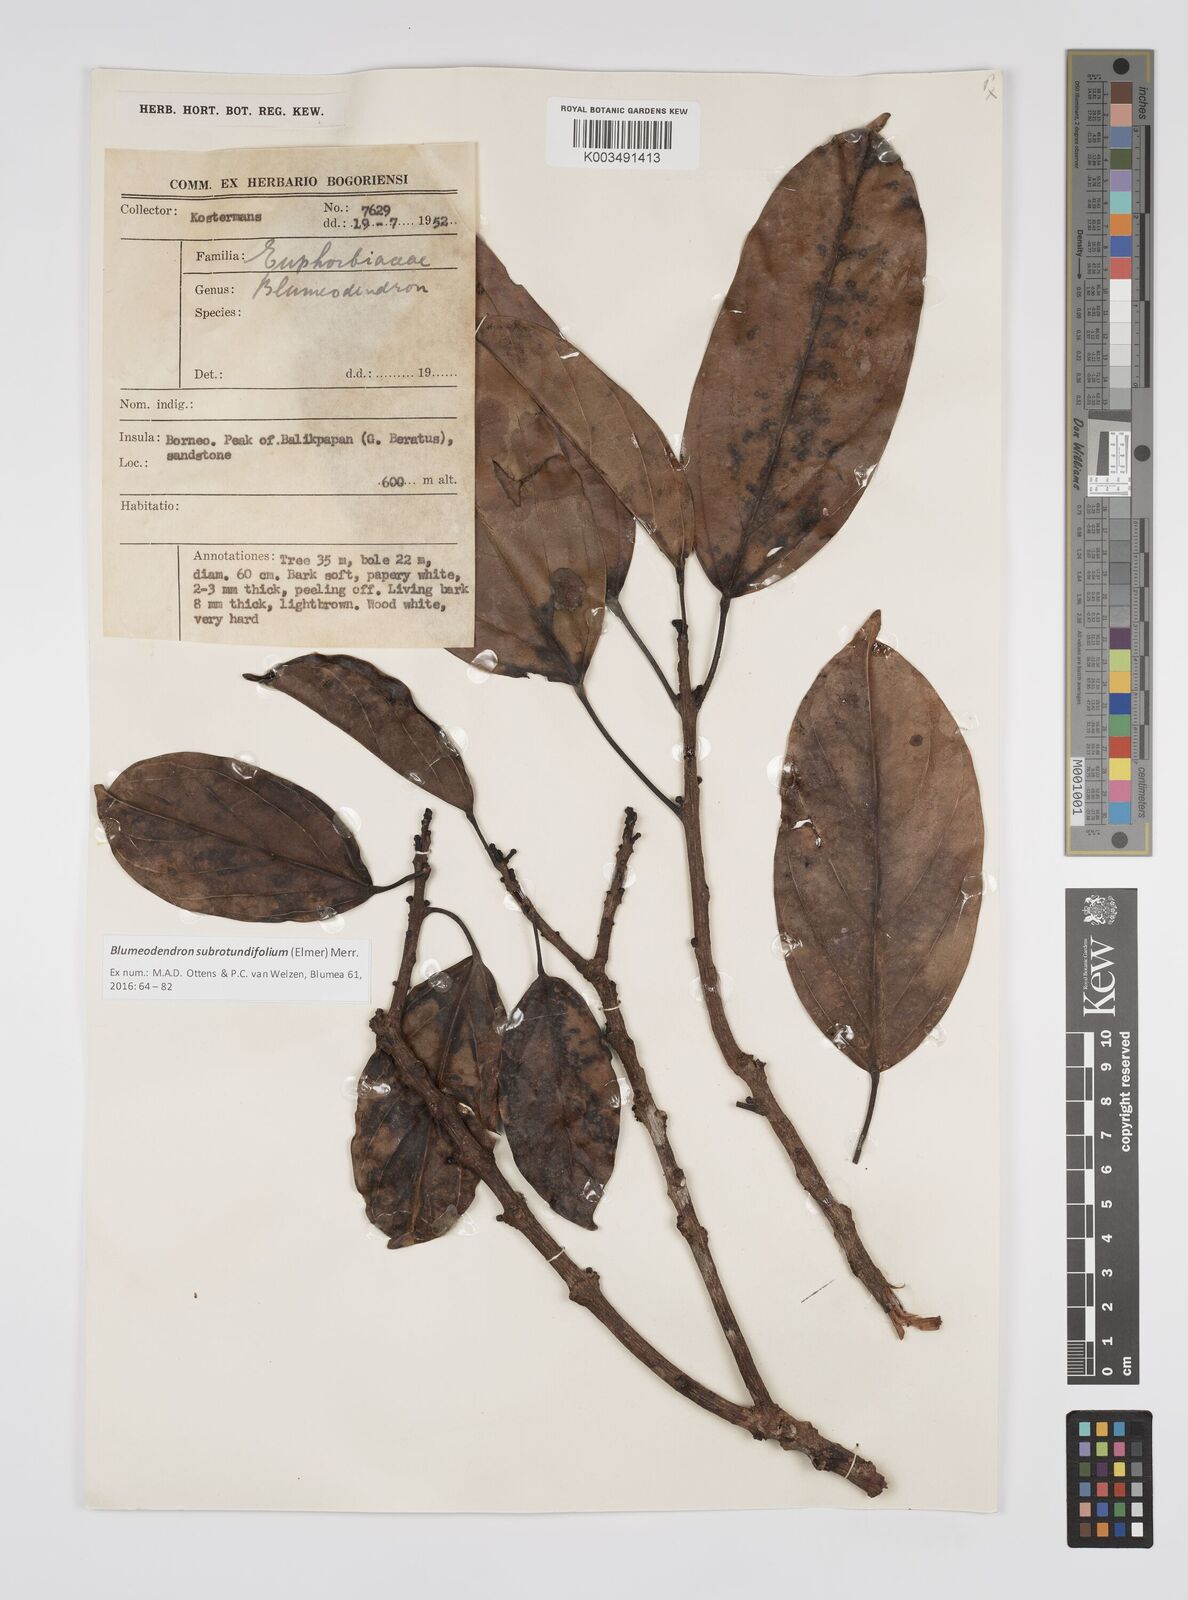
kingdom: Plantae
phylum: Tracheophyta
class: Magnoliopsida
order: Malpighiales
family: Euphorbiaceae
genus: Blumeodendron
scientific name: Blumeodendron subrotundifolium
